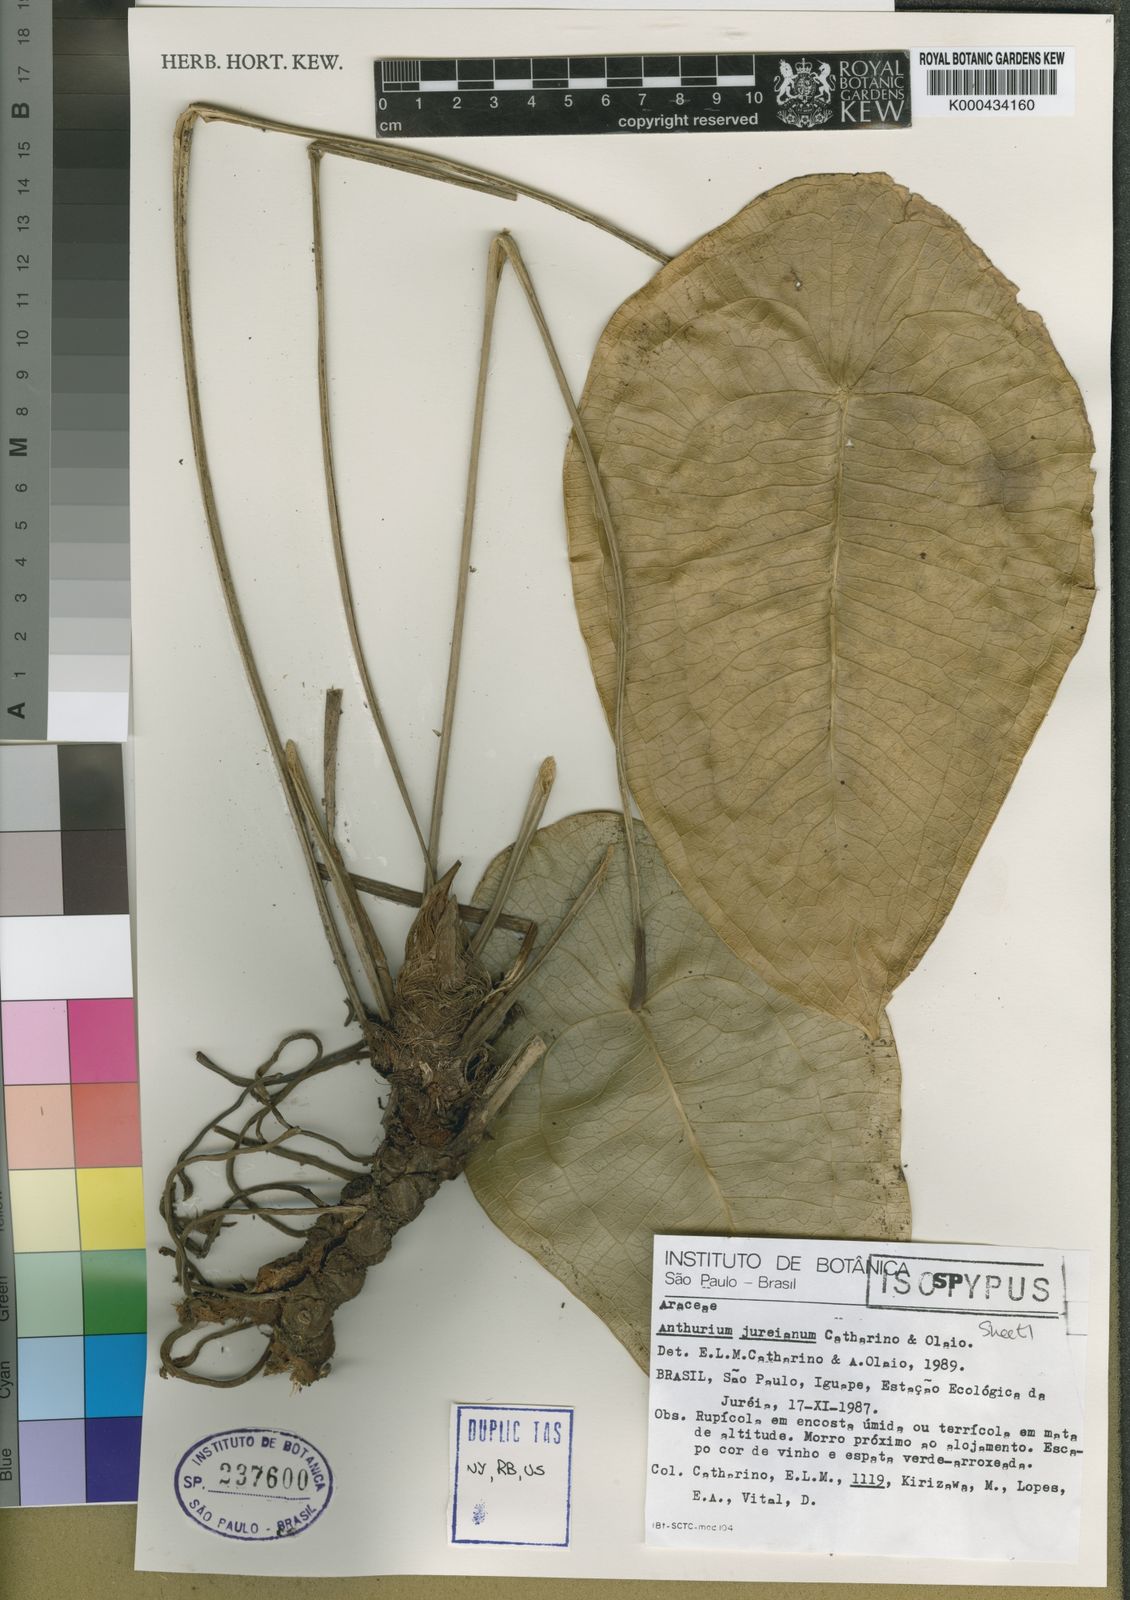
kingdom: Plantae
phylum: Tracheophyta
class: Liliopsida
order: Alismatales
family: Araceae
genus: Anthurium
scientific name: Anthurium jureianum
